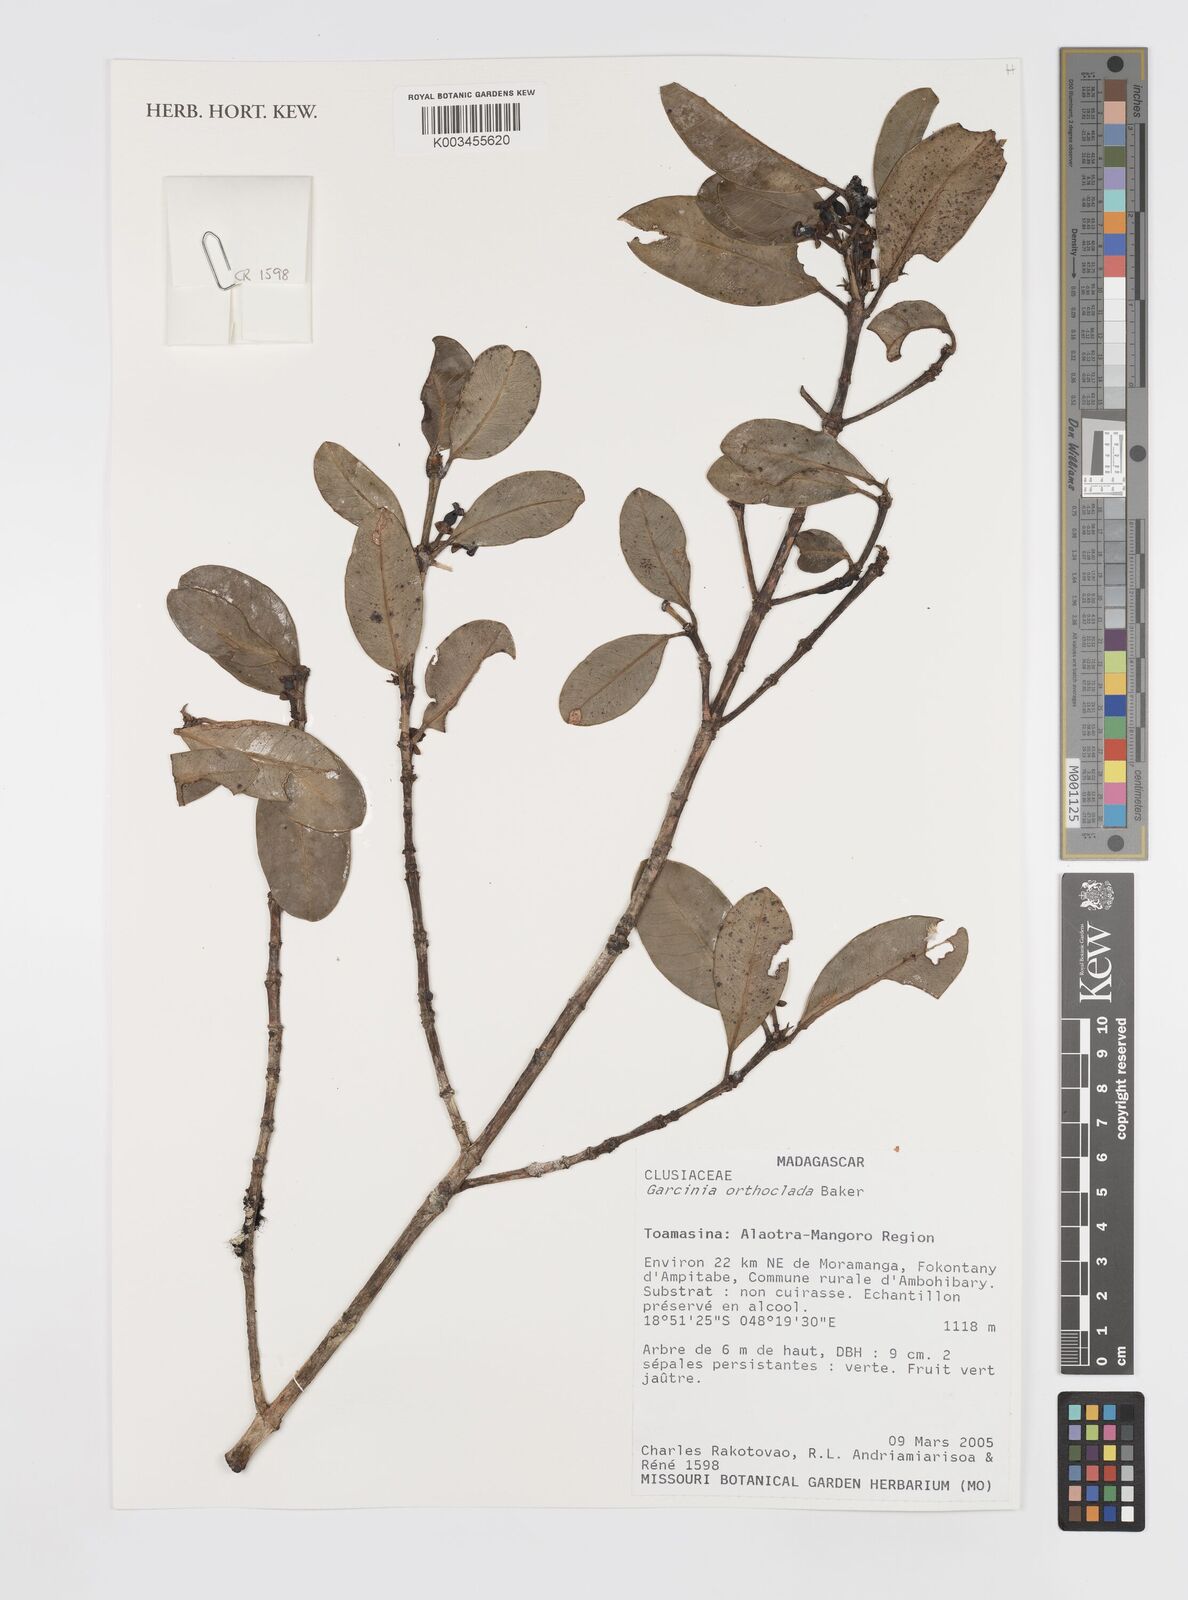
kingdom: Plantae
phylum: Tracheophyta
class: Magnoliopsida
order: Malpighiales
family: Clusiaceae
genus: Garcinia
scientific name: Garcinia orthoclada
